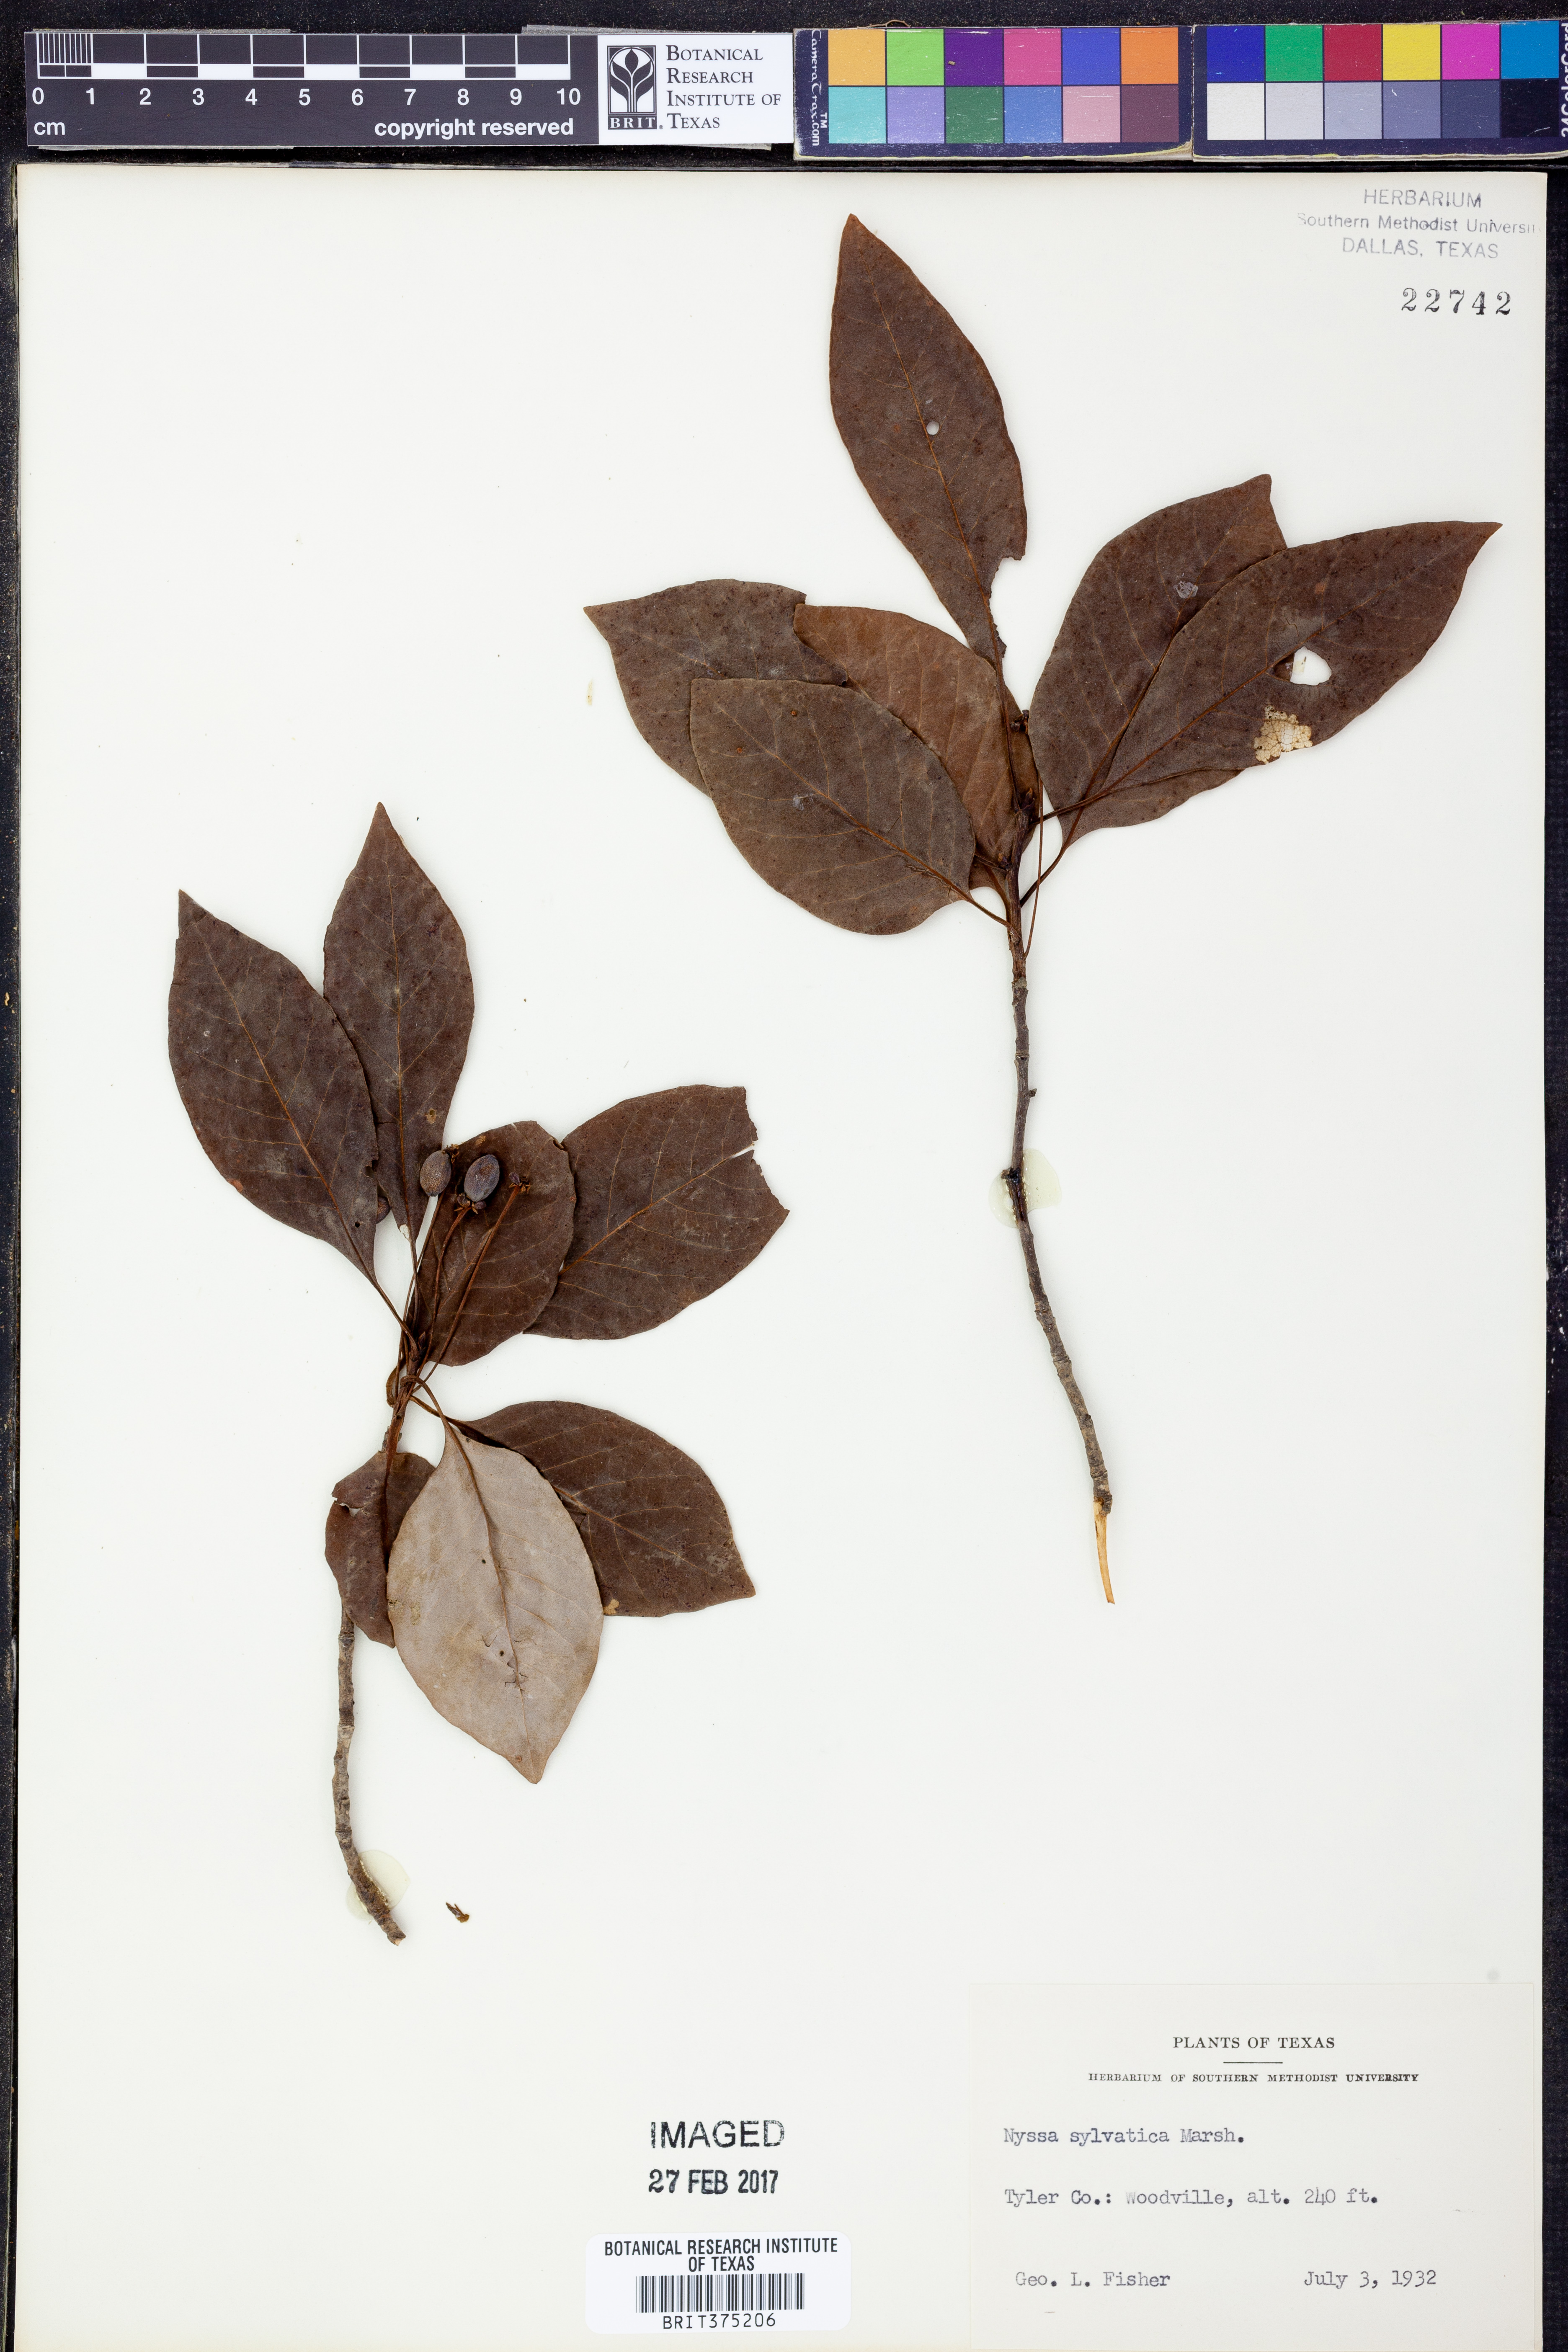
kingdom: Plantae
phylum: Tracheophyta
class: Magnoliopsida
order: Cornales
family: Nyssaceae
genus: Nyssa
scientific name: Nyssa sylvatica
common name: Black tupelo
